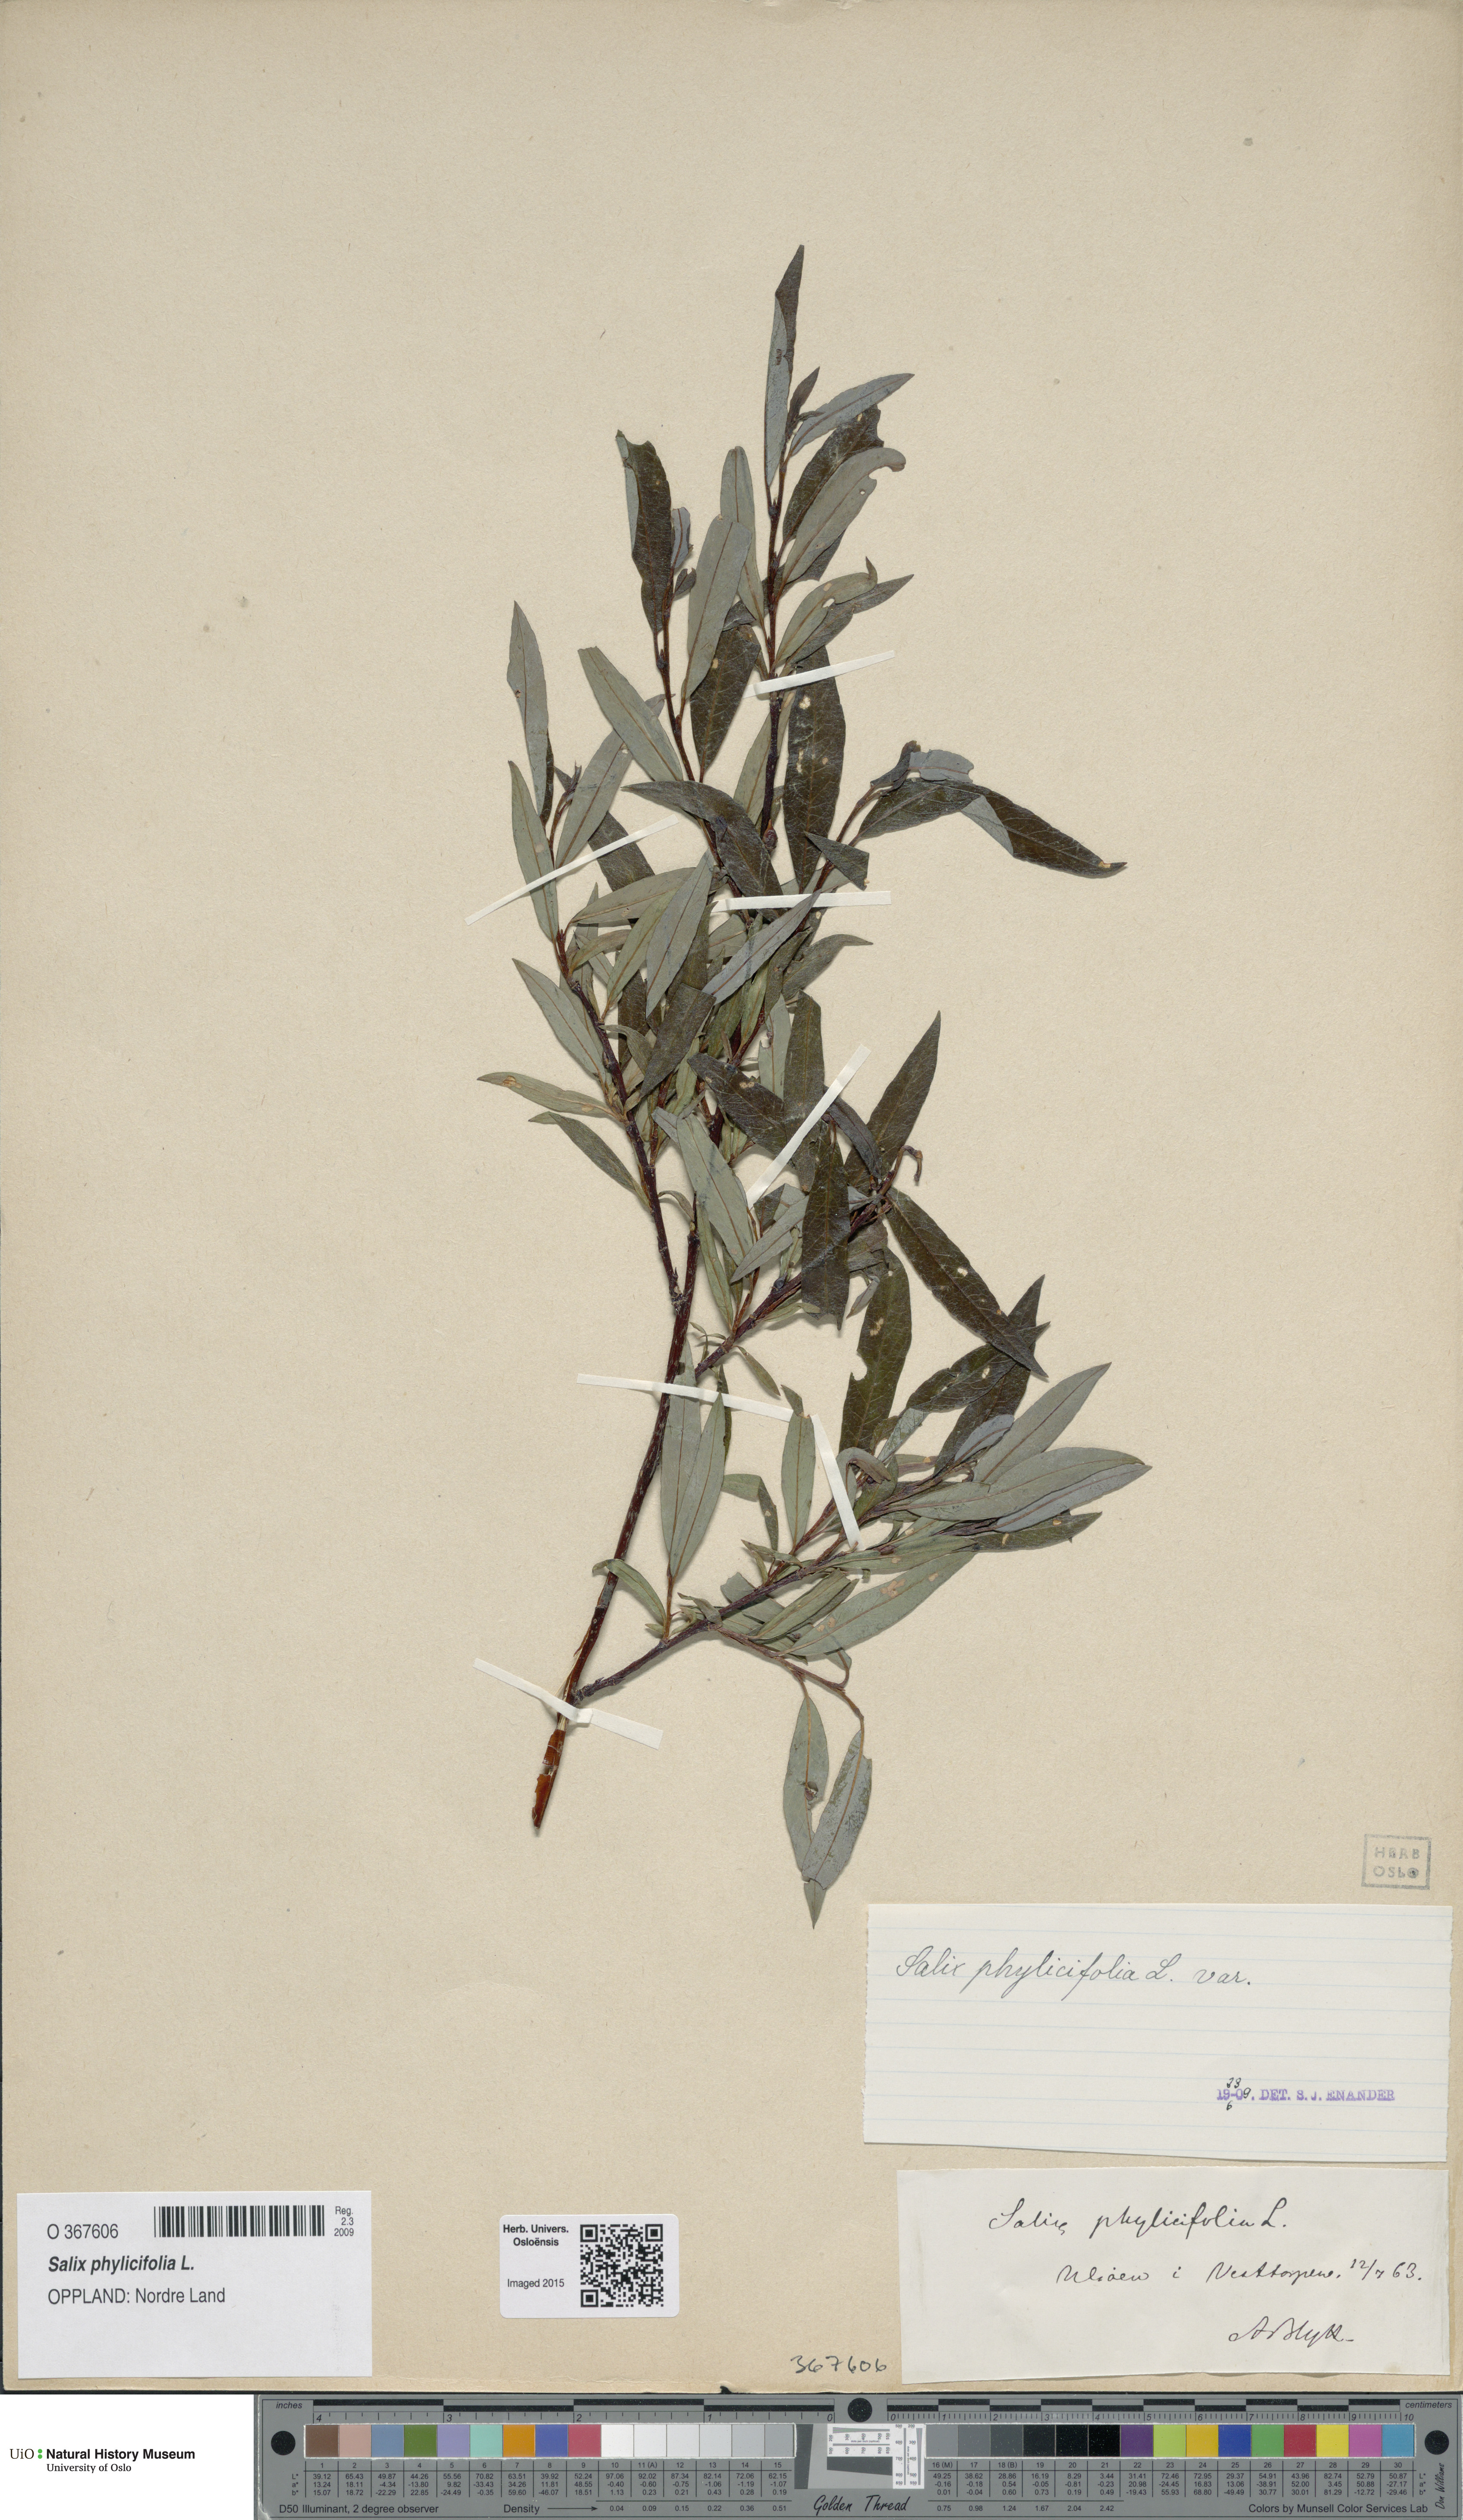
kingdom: Plantae
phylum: Tracheophyta
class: Magnoliopsida
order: Malpighiales
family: Salicaceae
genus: Salix
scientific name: Salix phylicifolia
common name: Tea-leaved willow
